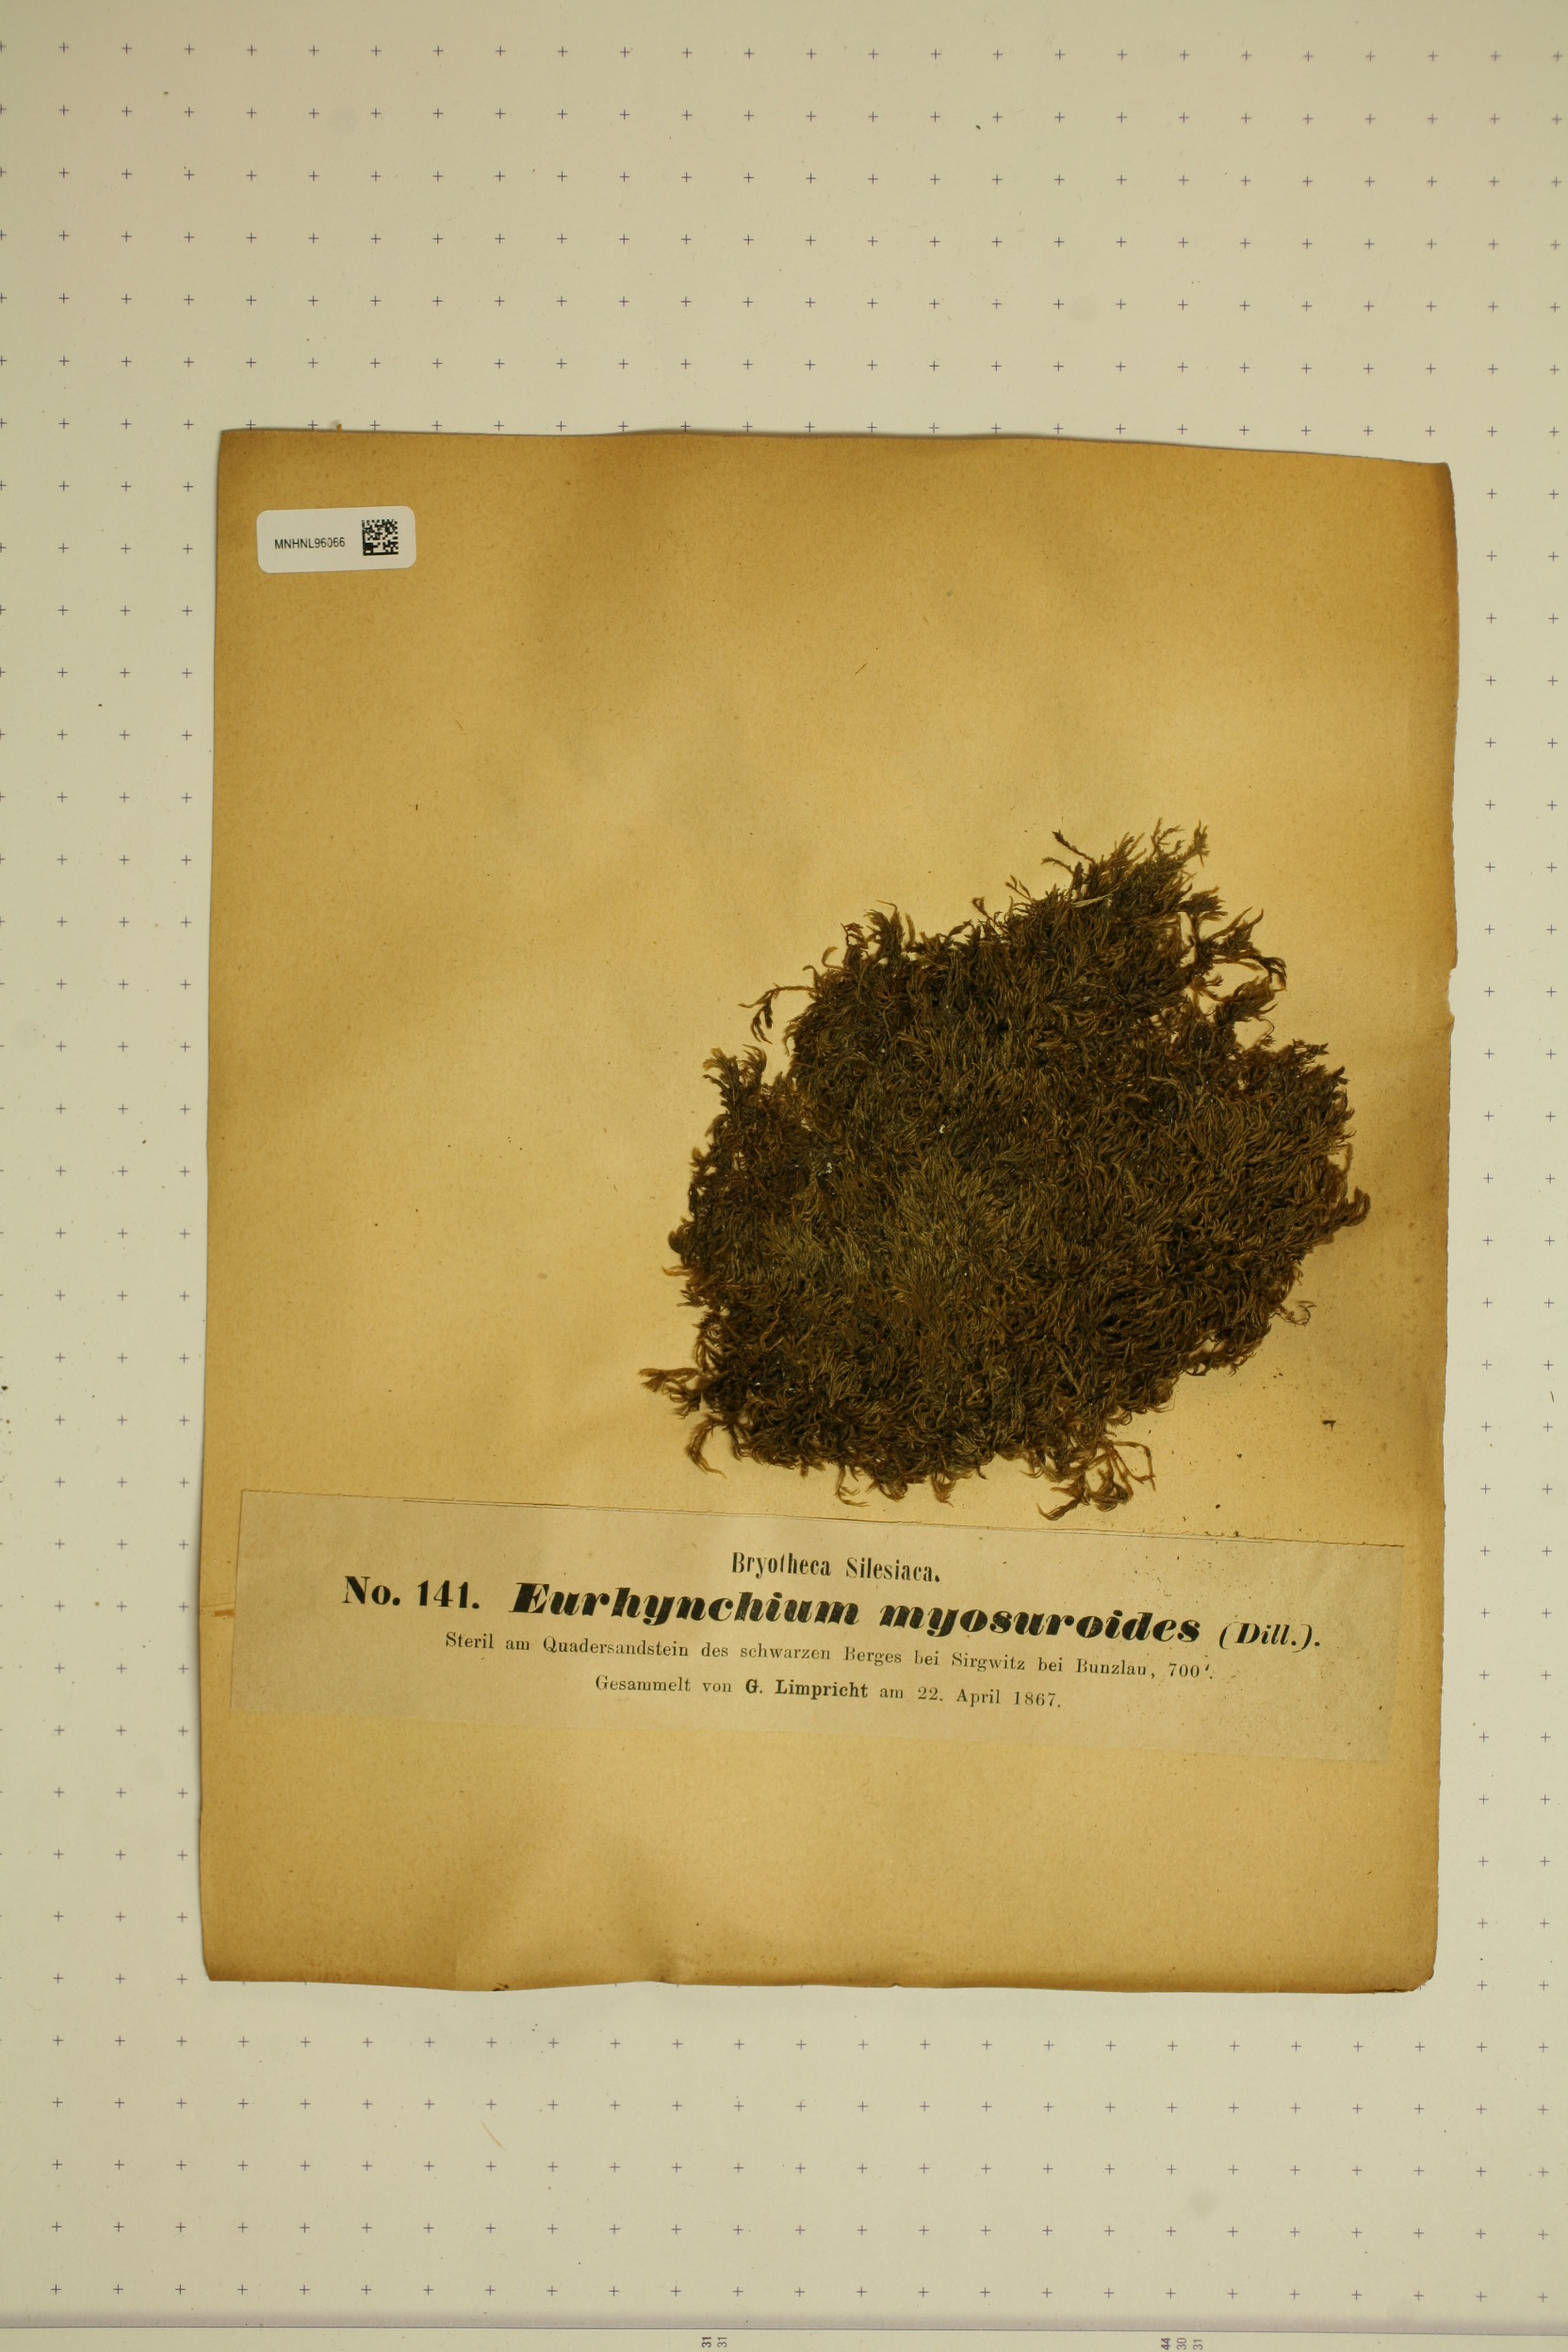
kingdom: Plantae
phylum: Bryophyta
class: Bryopsida
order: Hypnales
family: Lembophyllaceae
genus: Pseudisothecium
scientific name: Pseudisothecium myosuroides
